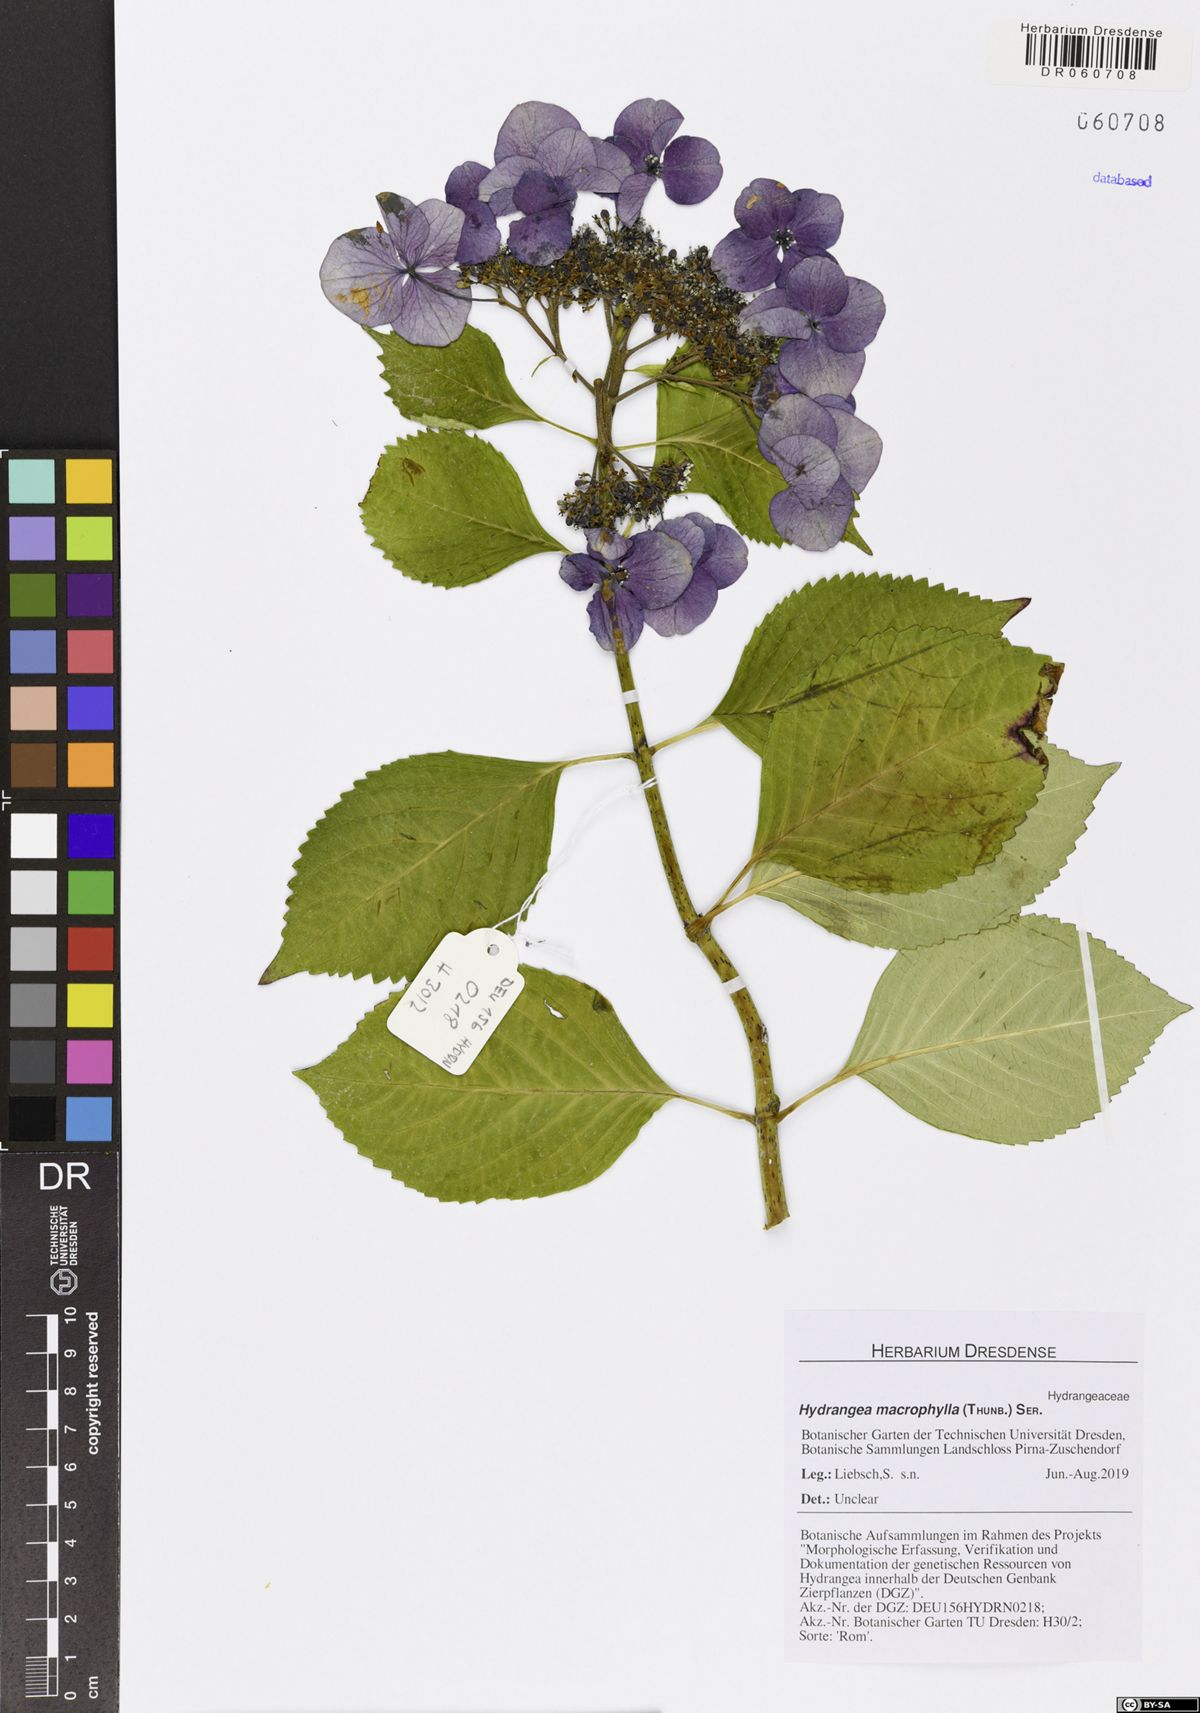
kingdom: Plantae
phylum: Tracheophyta
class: Magnoliopsida
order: Cornales
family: Hydrangeaceae
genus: Hydrangea
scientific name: Hydrangea macrophylla
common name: Hydrangea
